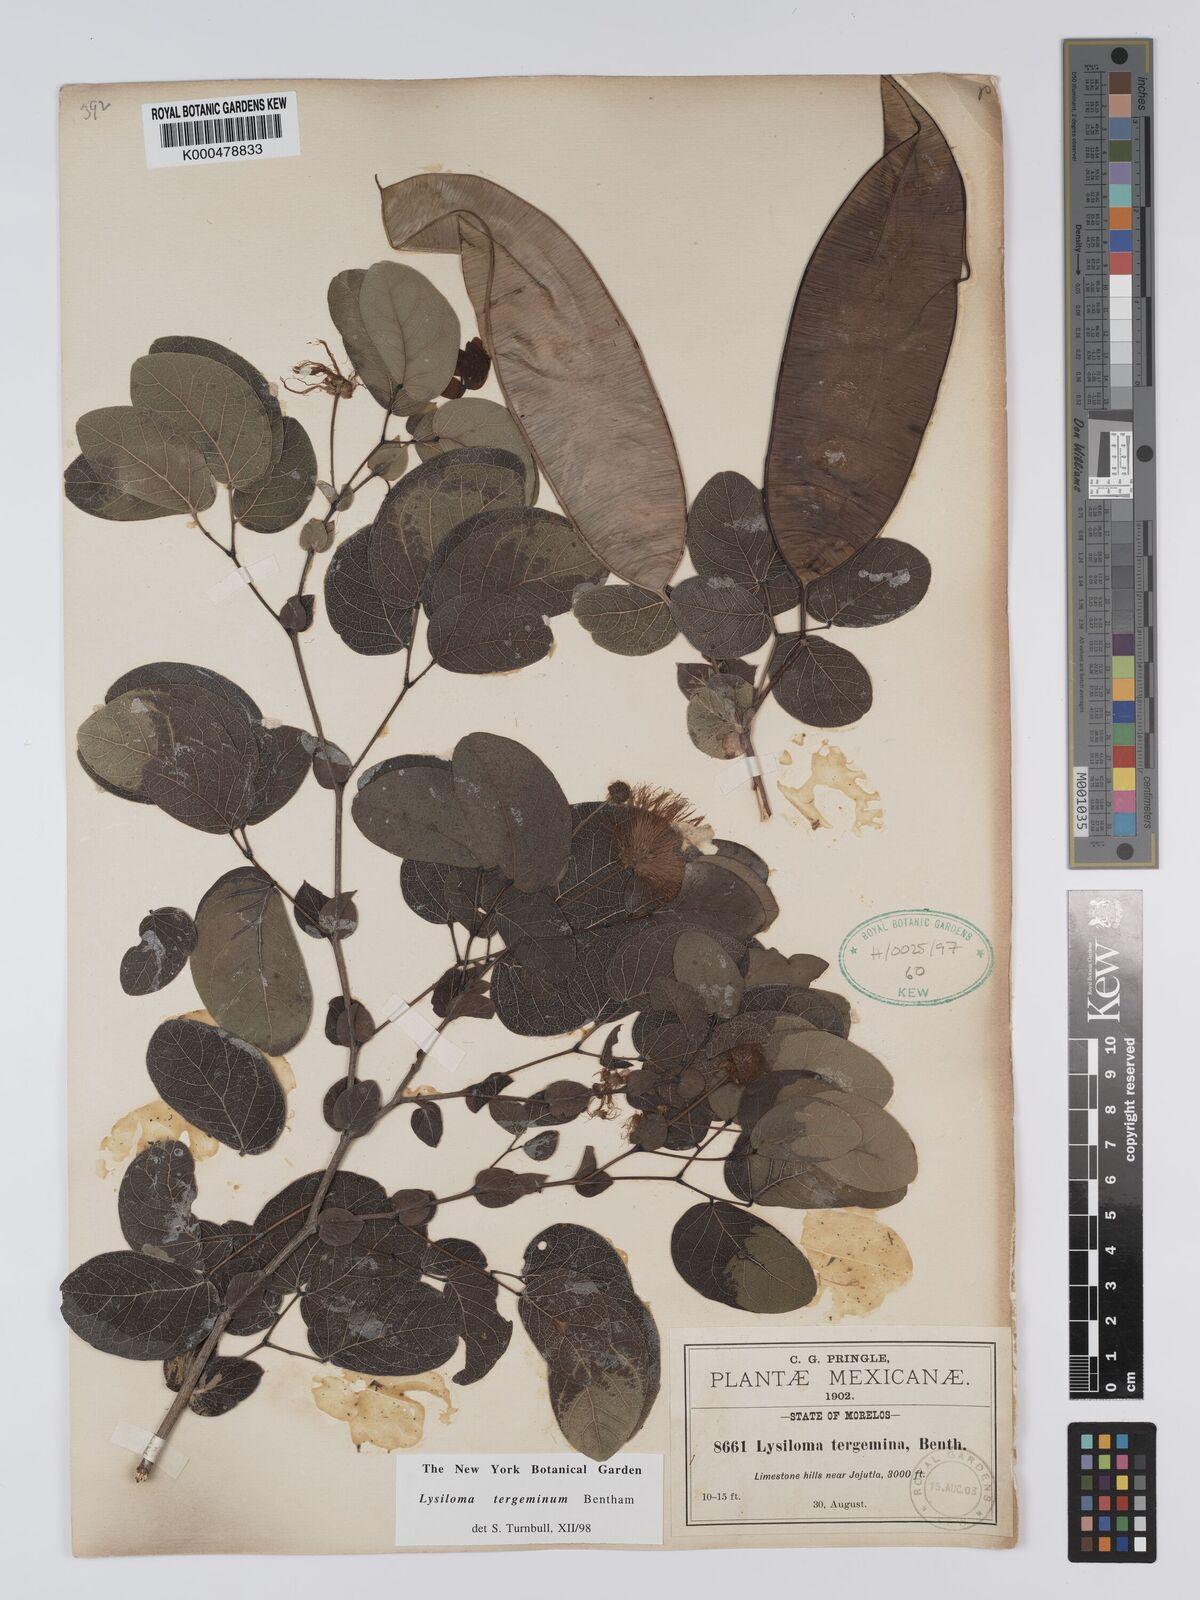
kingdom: Plantae
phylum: Tracheophyta
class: Magnoliopsida
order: Fabales
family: Fabaceae
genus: Lysiloma
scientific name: Lysiloma tergeminum
